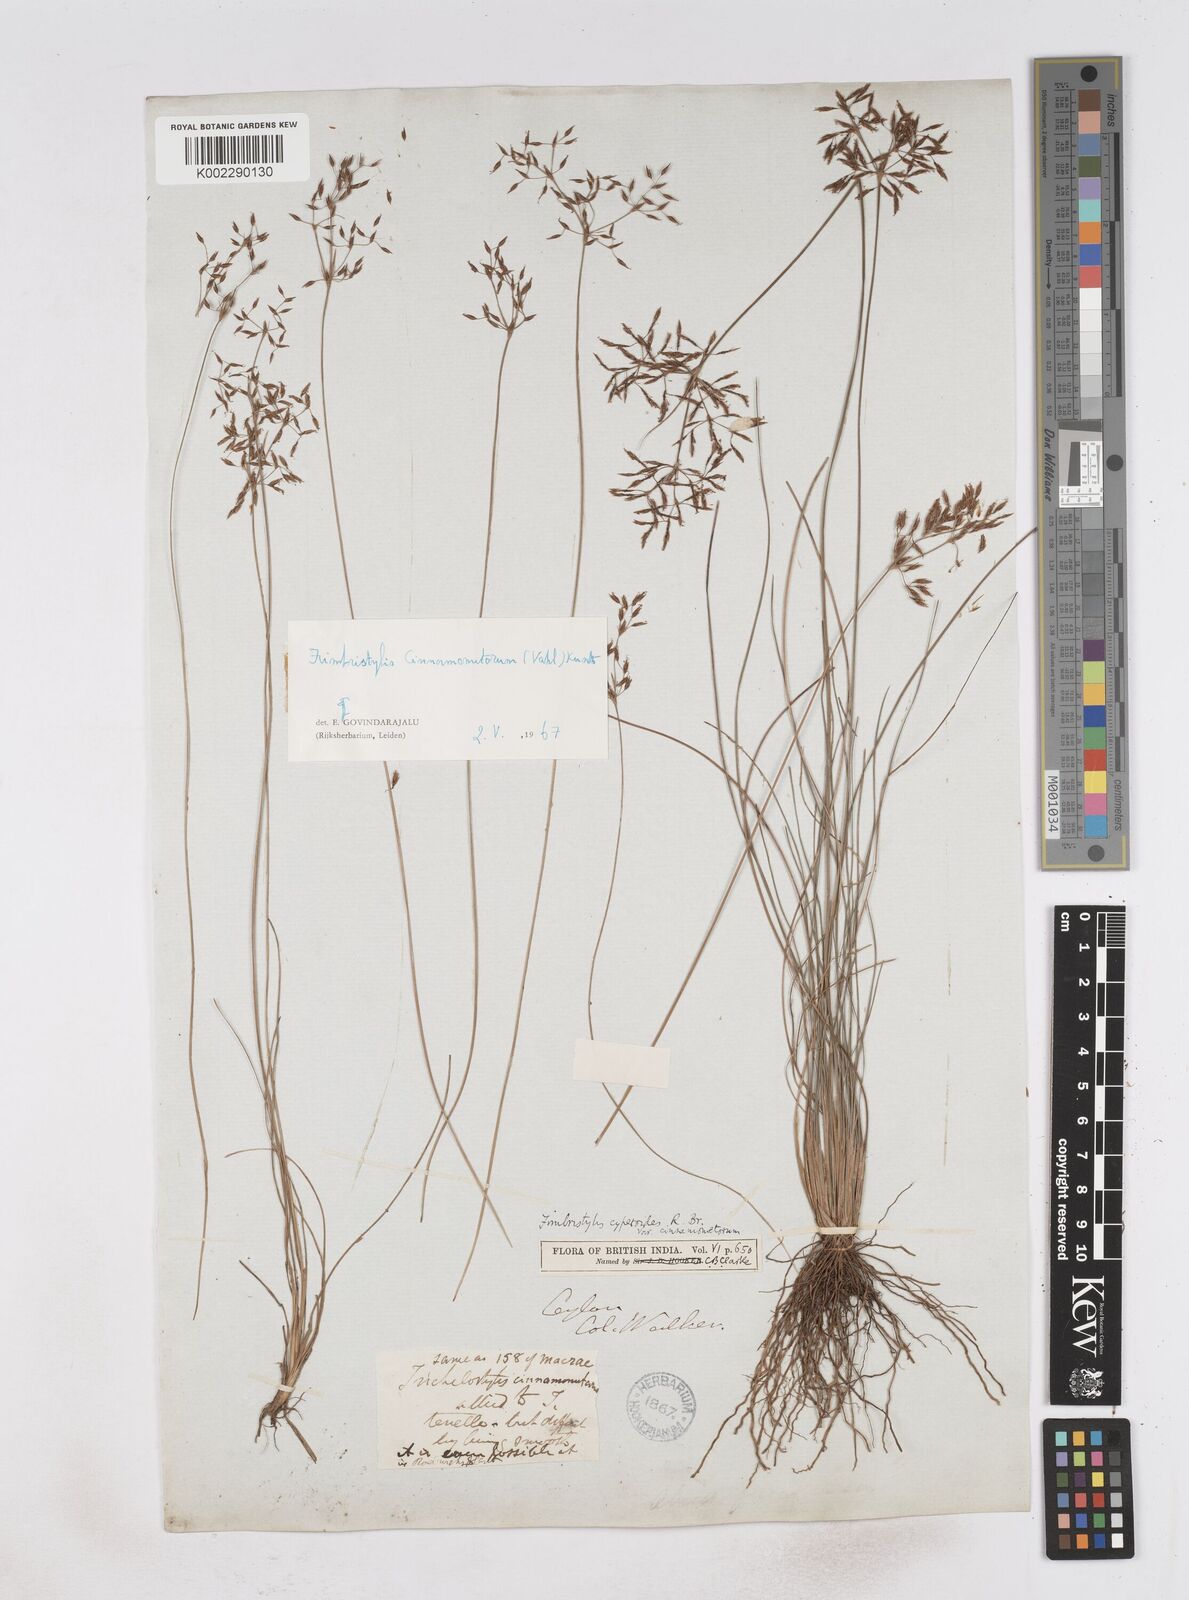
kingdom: Plantae
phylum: Tracheophyta
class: Liliopsida
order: Poales
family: Cyperaceae
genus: Fimbristylis
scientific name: Fimbristylis cinnamometorum
